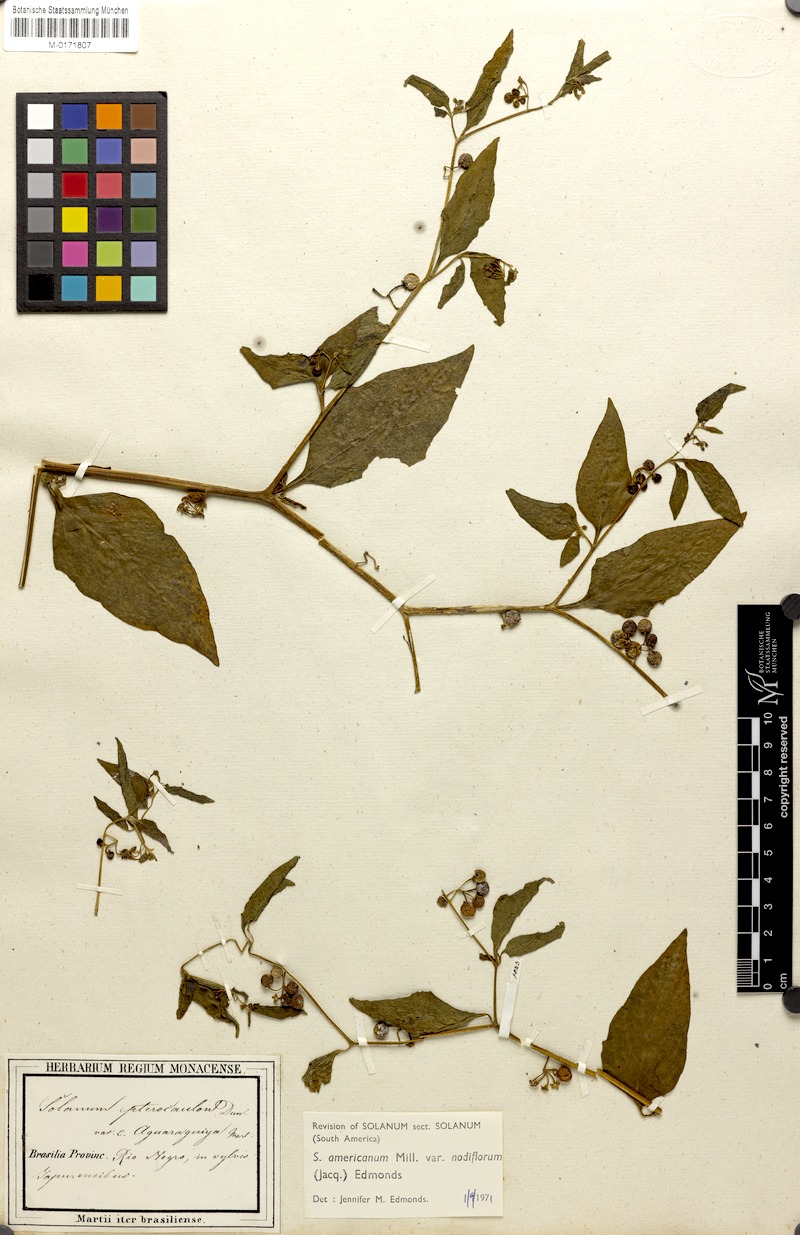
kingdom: Plantae
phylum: Tracheophyta
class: Magnoliopsida
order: Solanales
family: Solanaceae
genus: Solanum
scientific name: Solanum americanum
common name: American black nightshade
